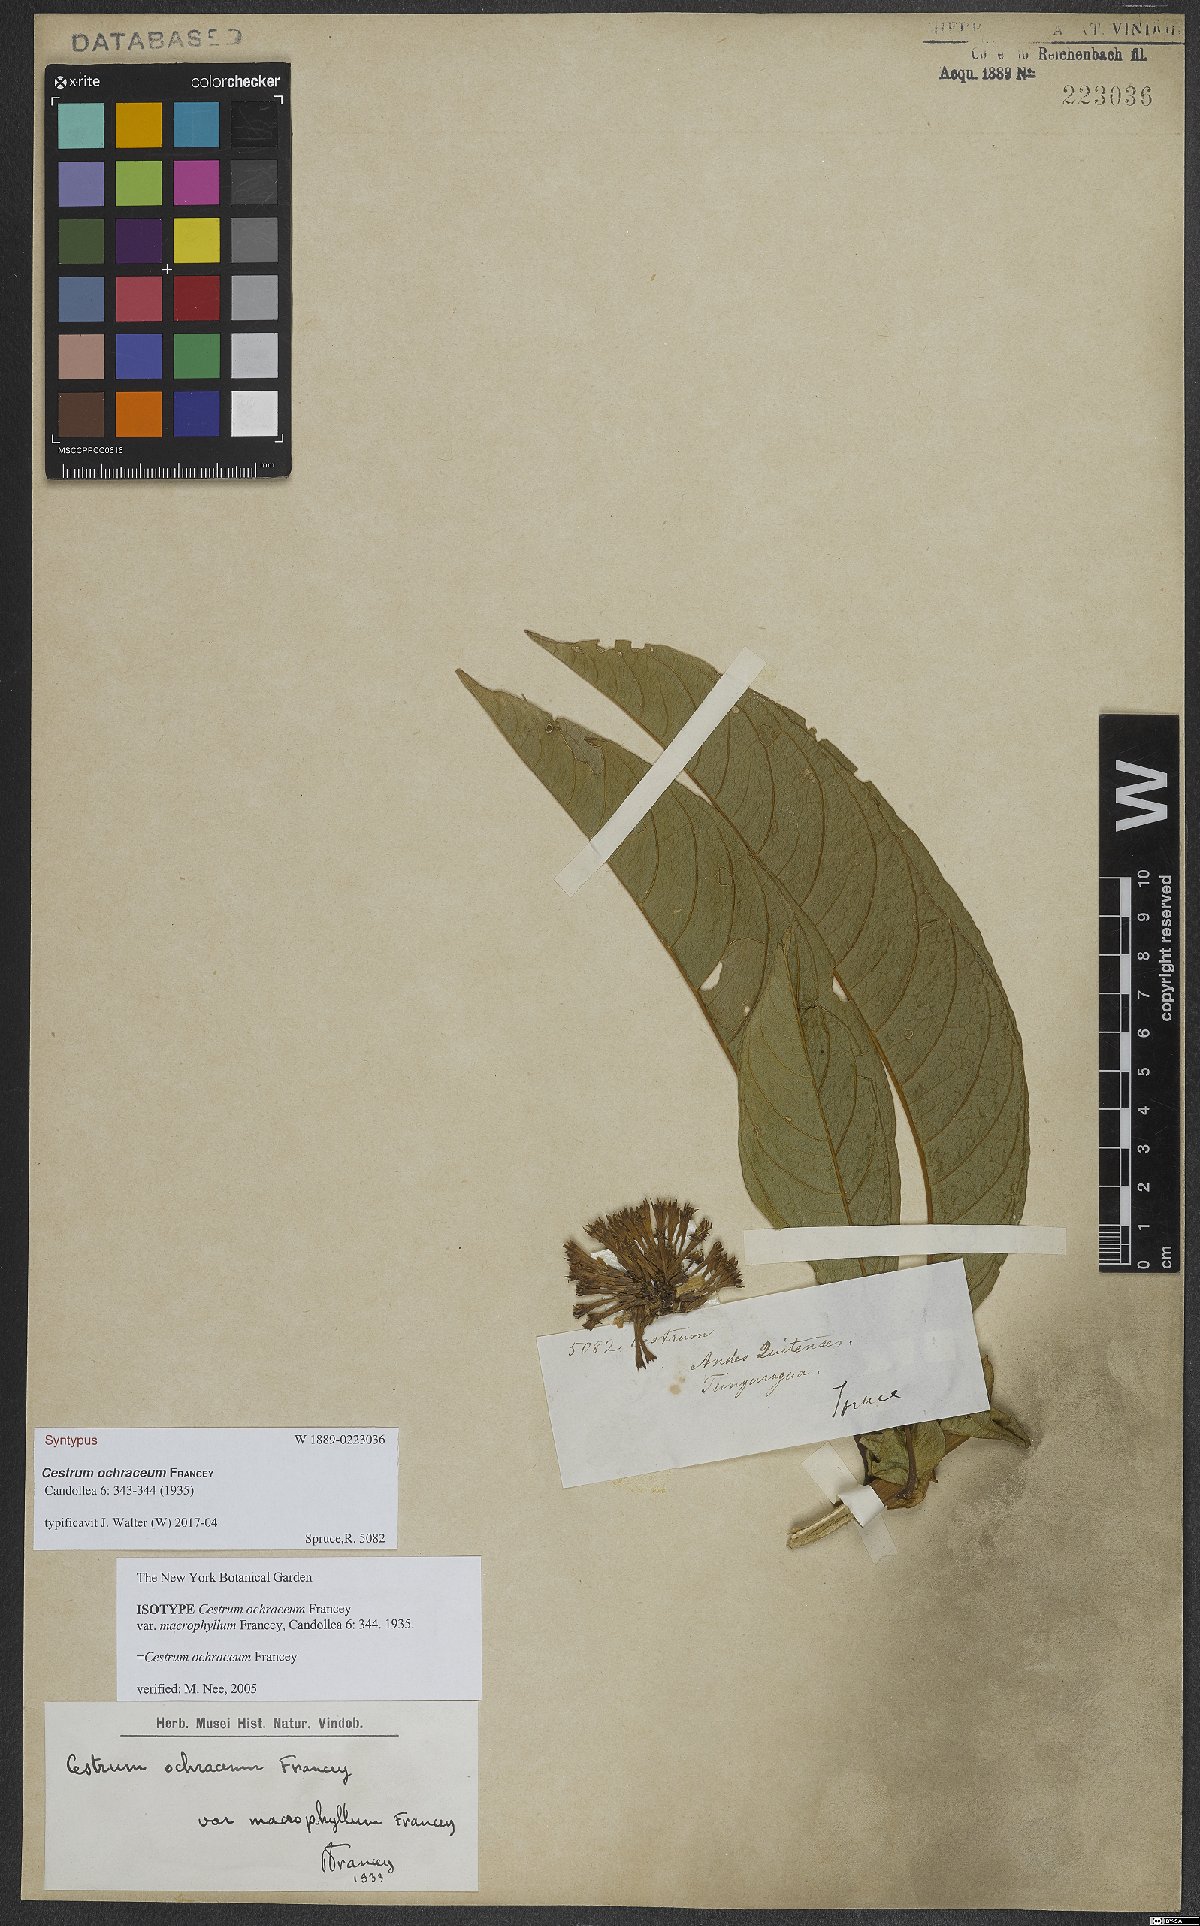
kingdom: Plantae
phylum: Tracheophyta
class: Magnoliopsida
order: Solanales
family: Solanaceae
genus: Cestrum
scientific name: Cestrum ochraceum
